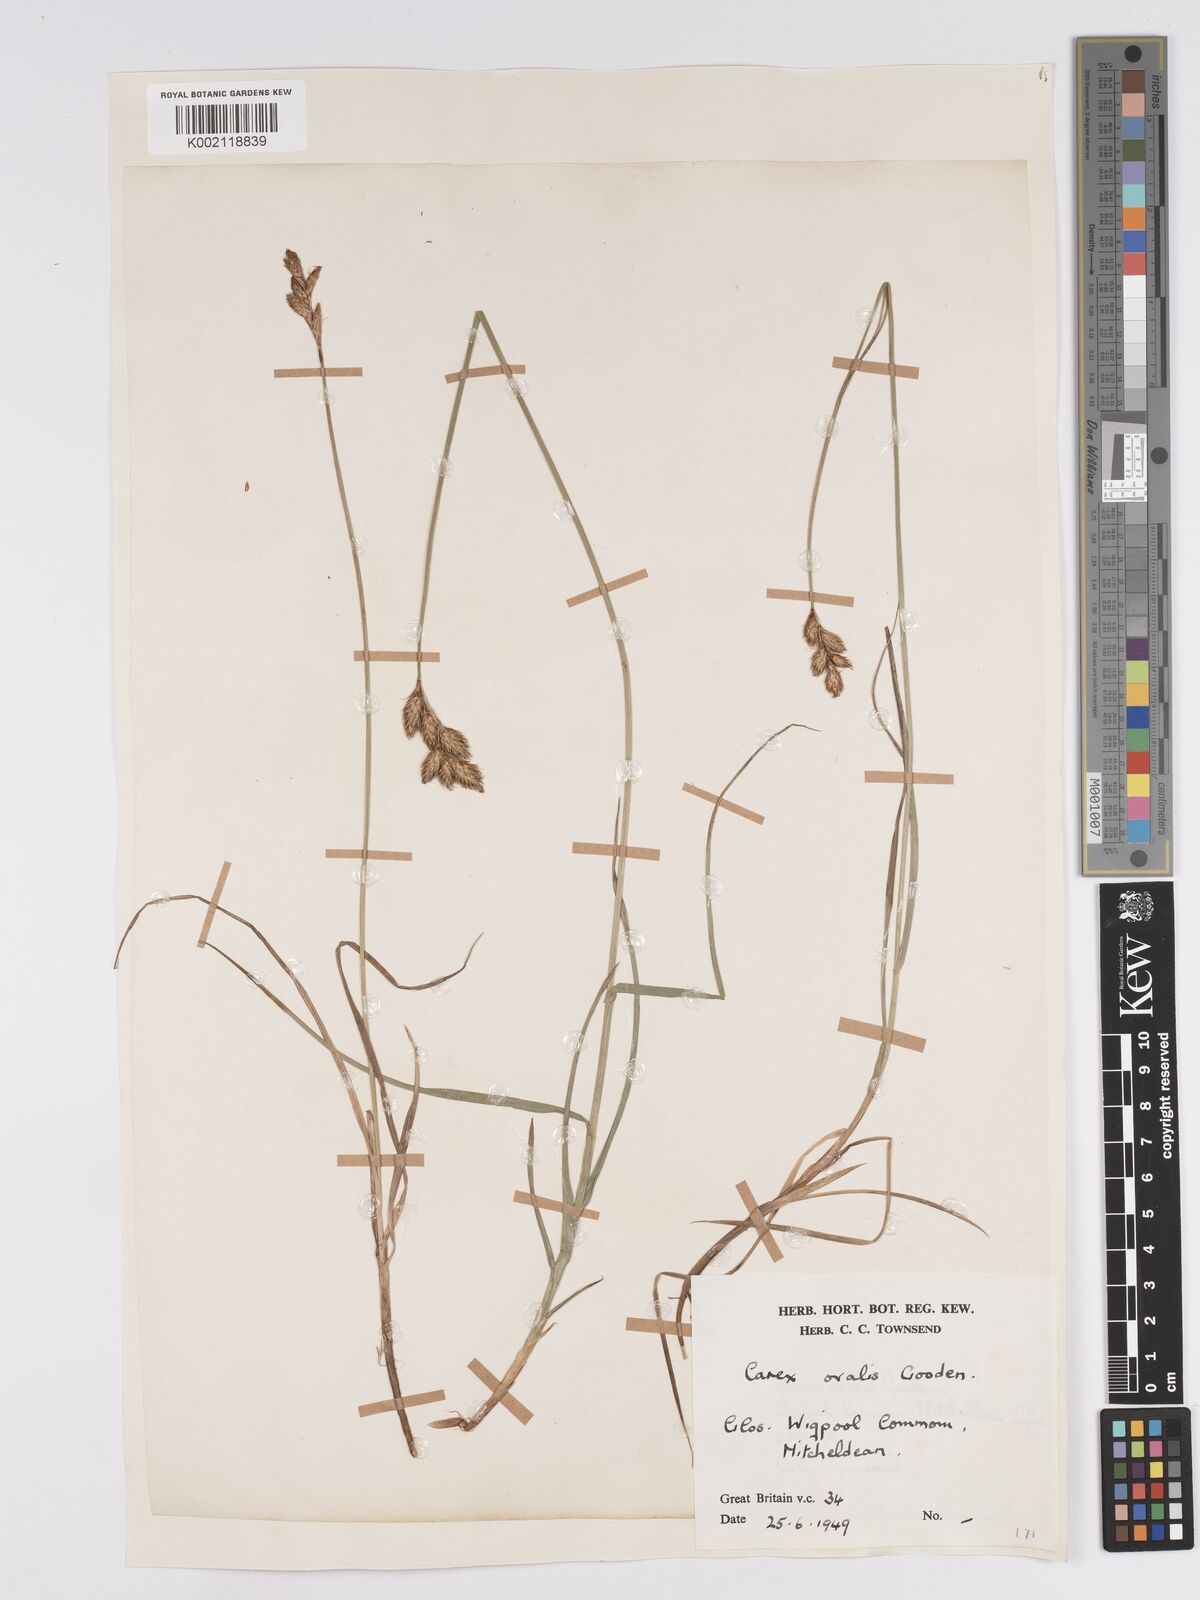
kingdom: Plantae
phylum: Tracheophyta
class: Liliopsida
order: Poales
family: Cyperaceae
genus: Carex
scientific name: Carex leporina
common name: Oval sedge
